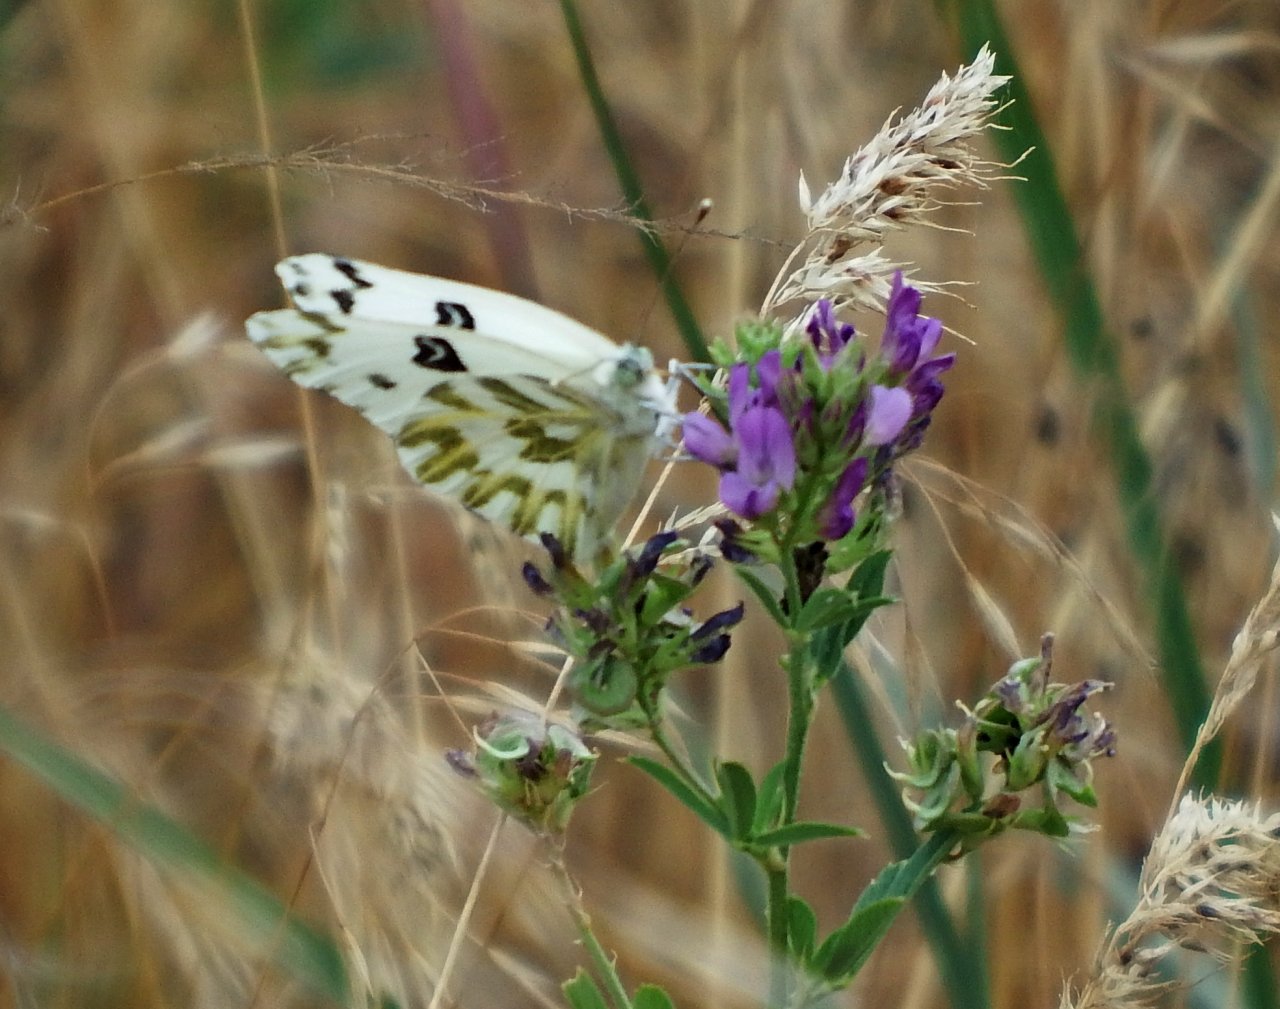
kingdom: Animalia
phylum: Arthropoda
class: Insecta
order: Lepidoptera
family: Pieridae
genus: Pontia
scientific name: Pontia beckerii
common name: Becker's White
